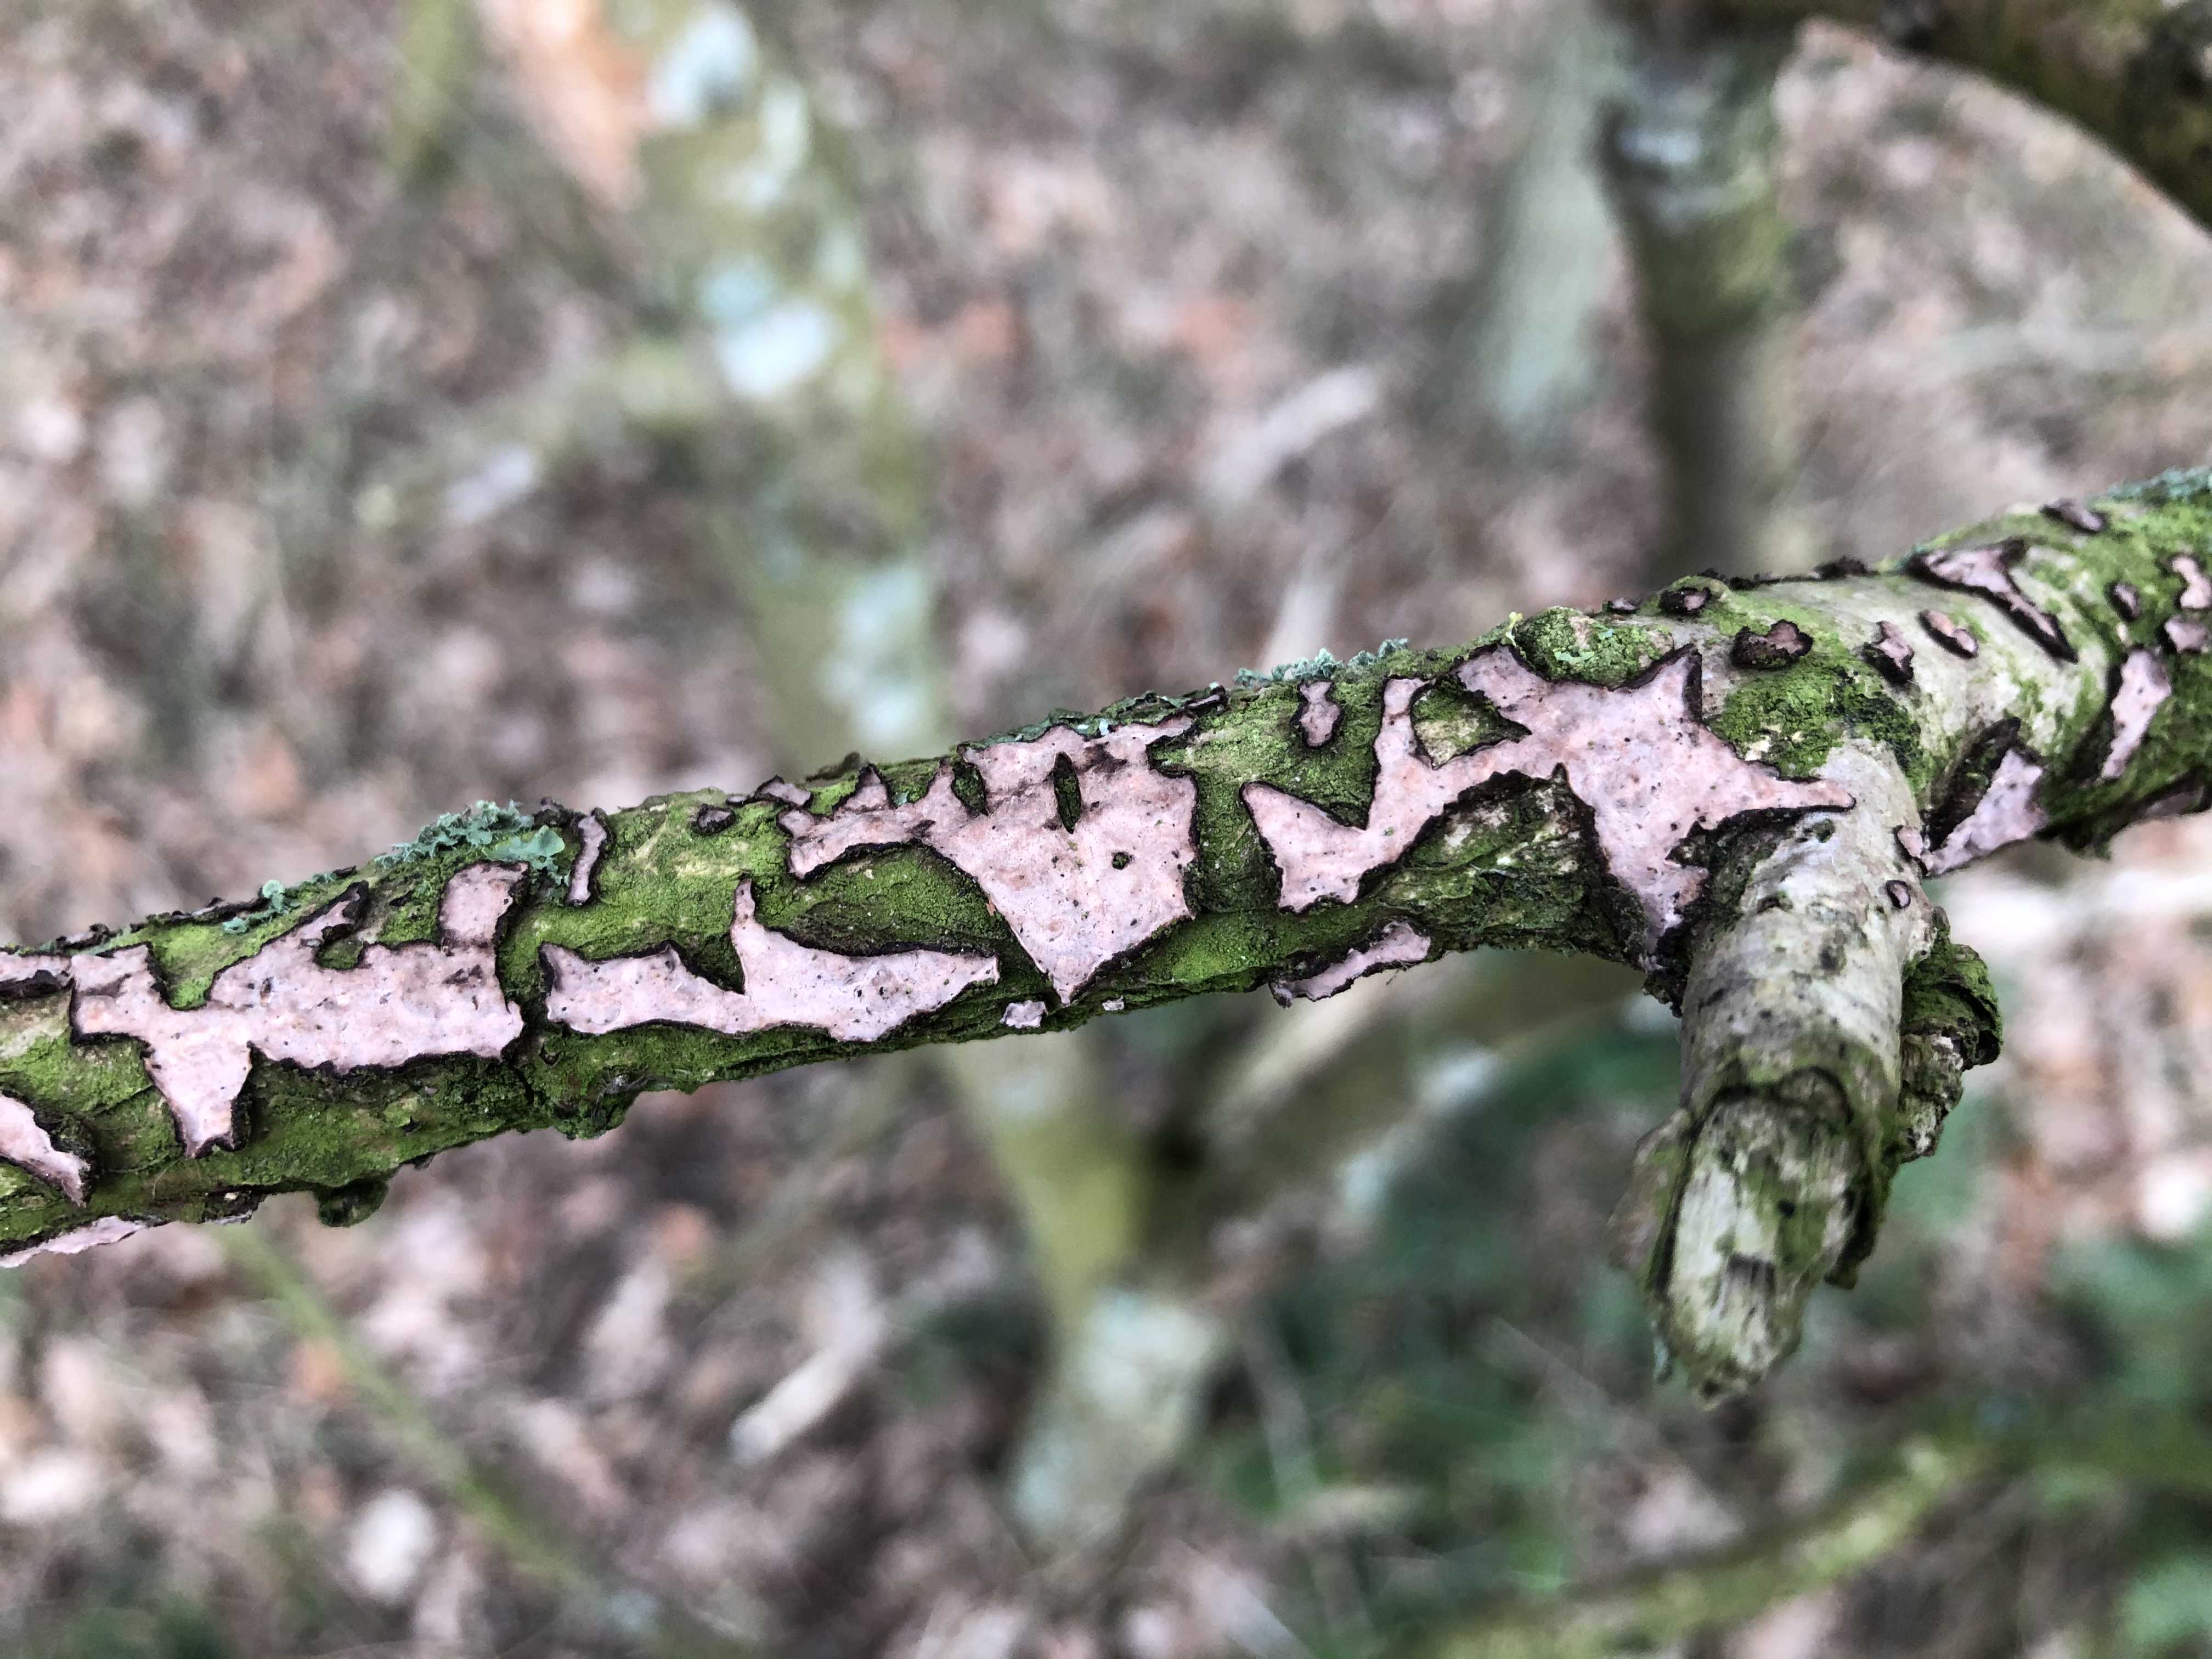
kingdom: Fungi
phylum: Basidiomycota
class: Agaricomycetes
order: Russulales
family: Peniophoraceae
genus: Peniophora
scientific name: Peniophora quercina
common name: ege-voksskind
